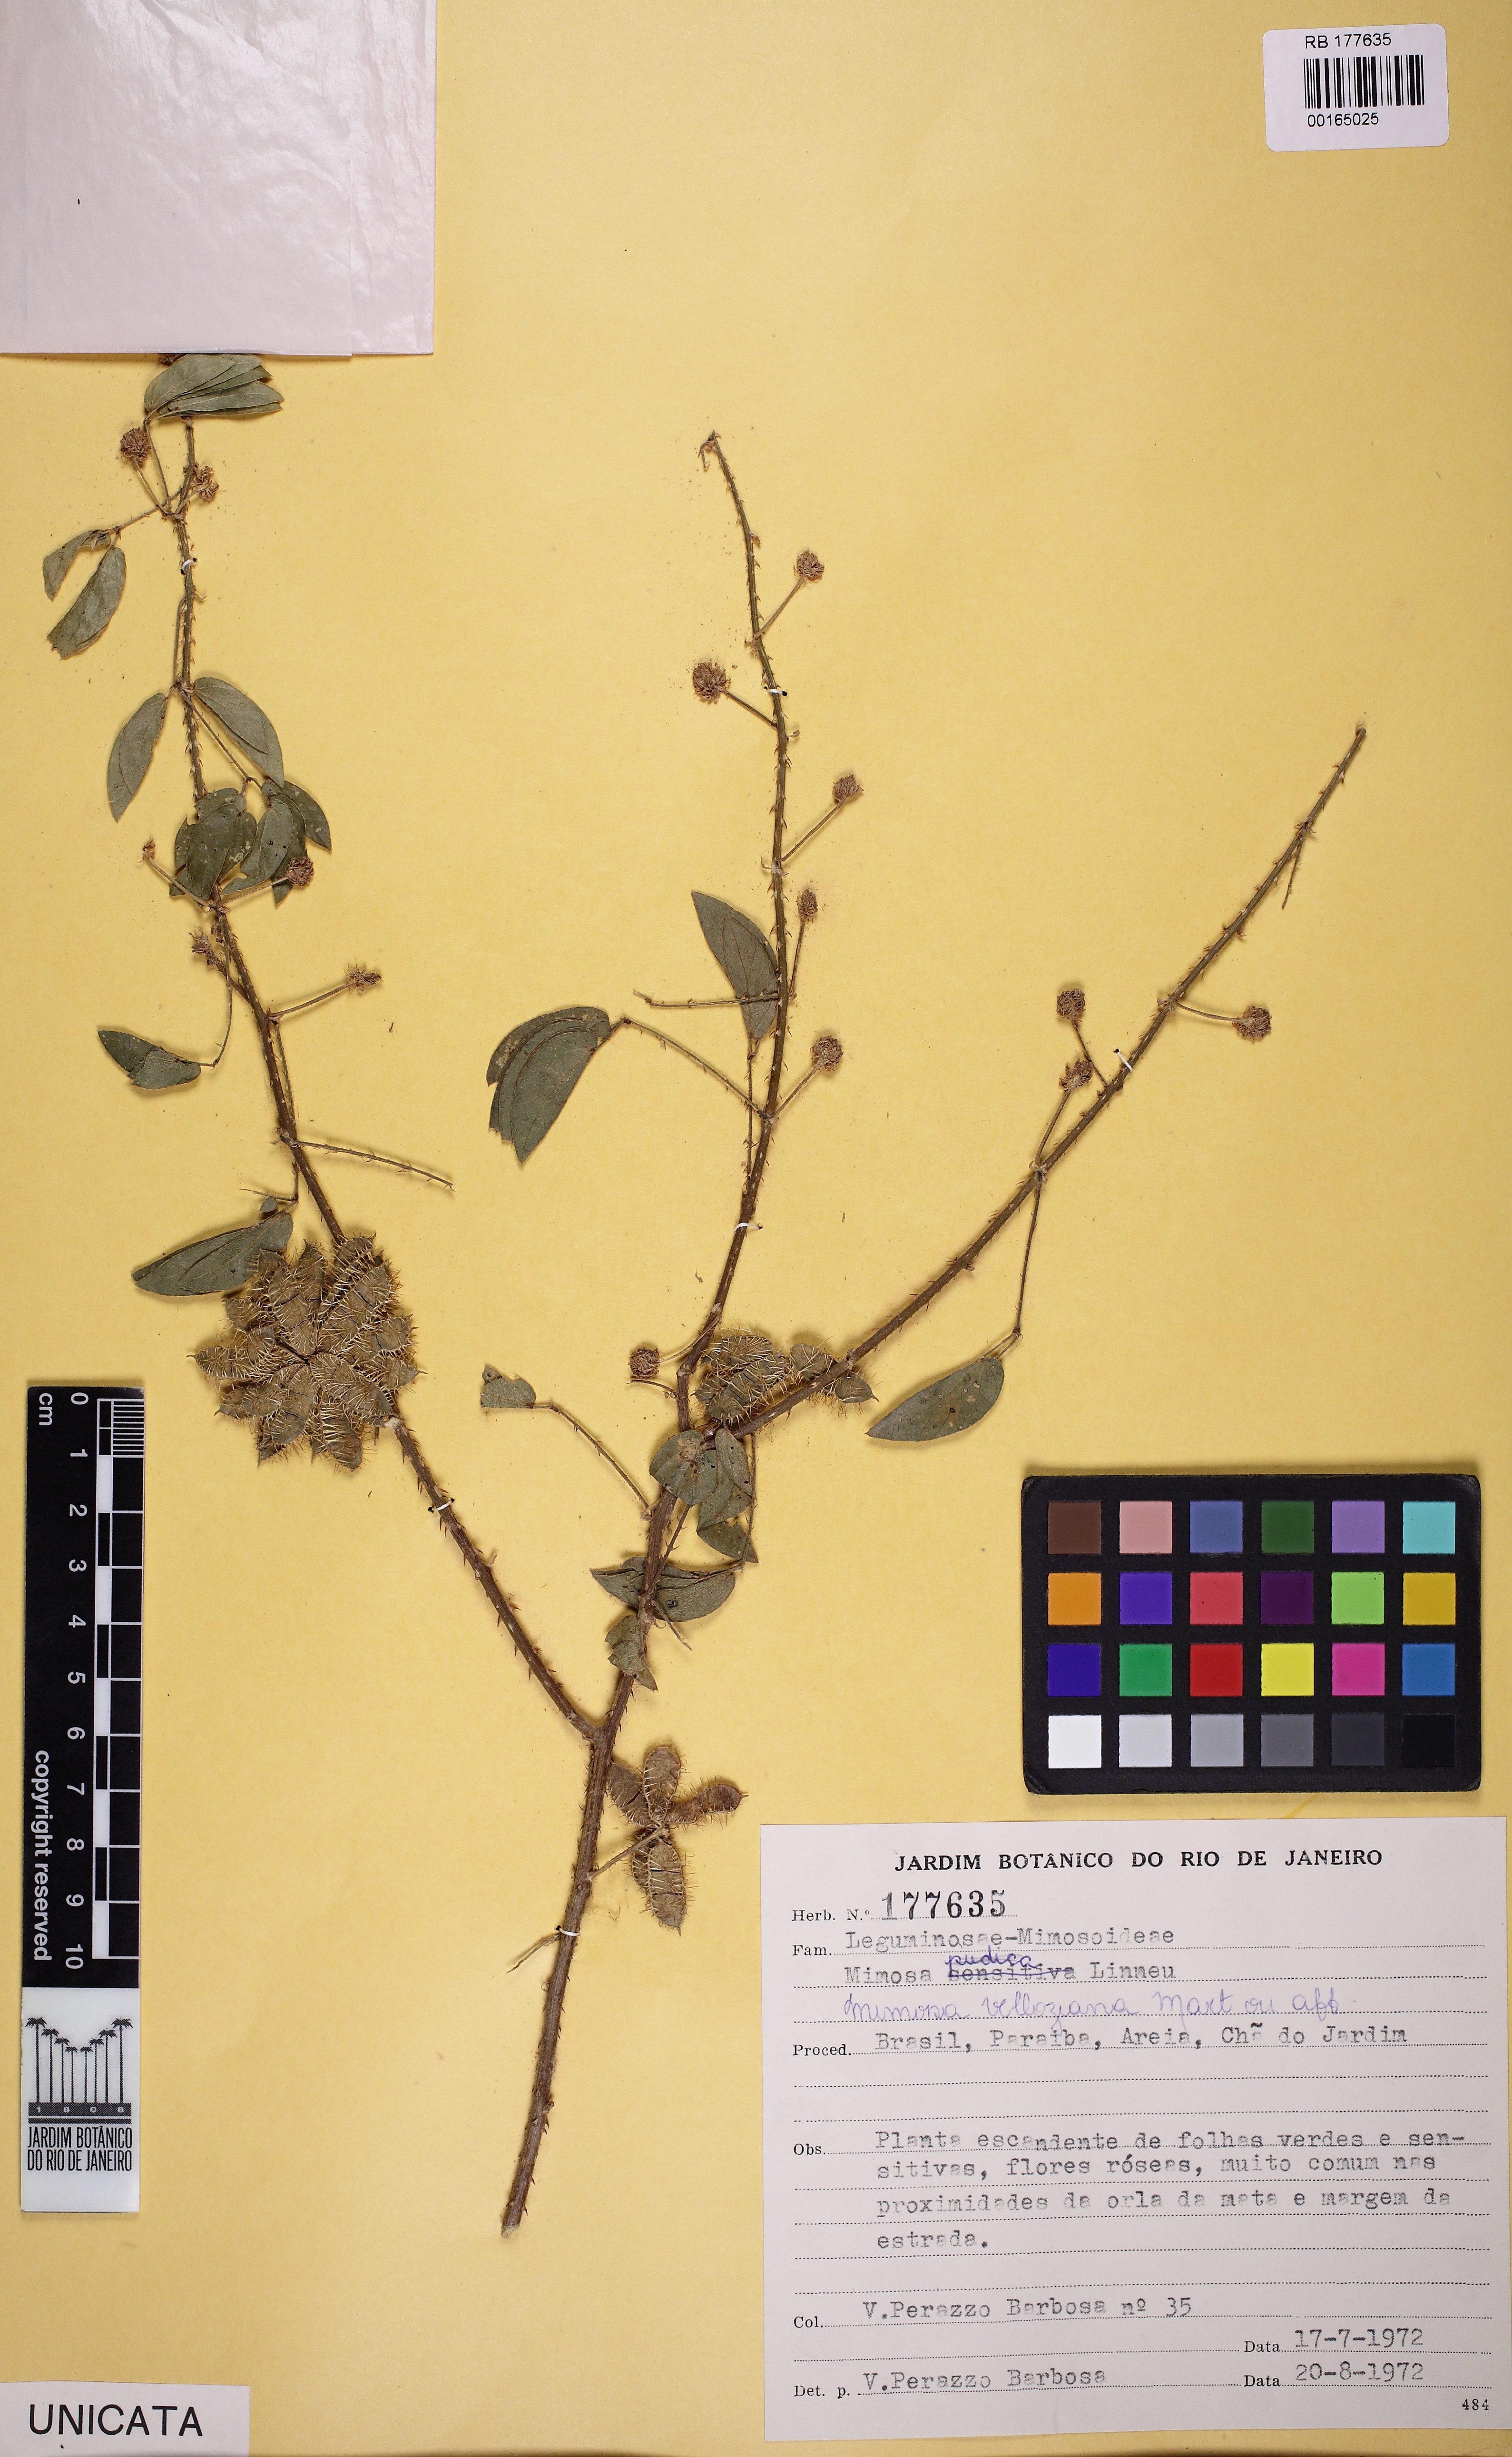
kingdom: Plantae
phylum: Tracheophyta
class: Magnoliopsida
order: Fabales
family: Fabaceae
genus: Mimosa
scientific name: Mimosa velloziana
